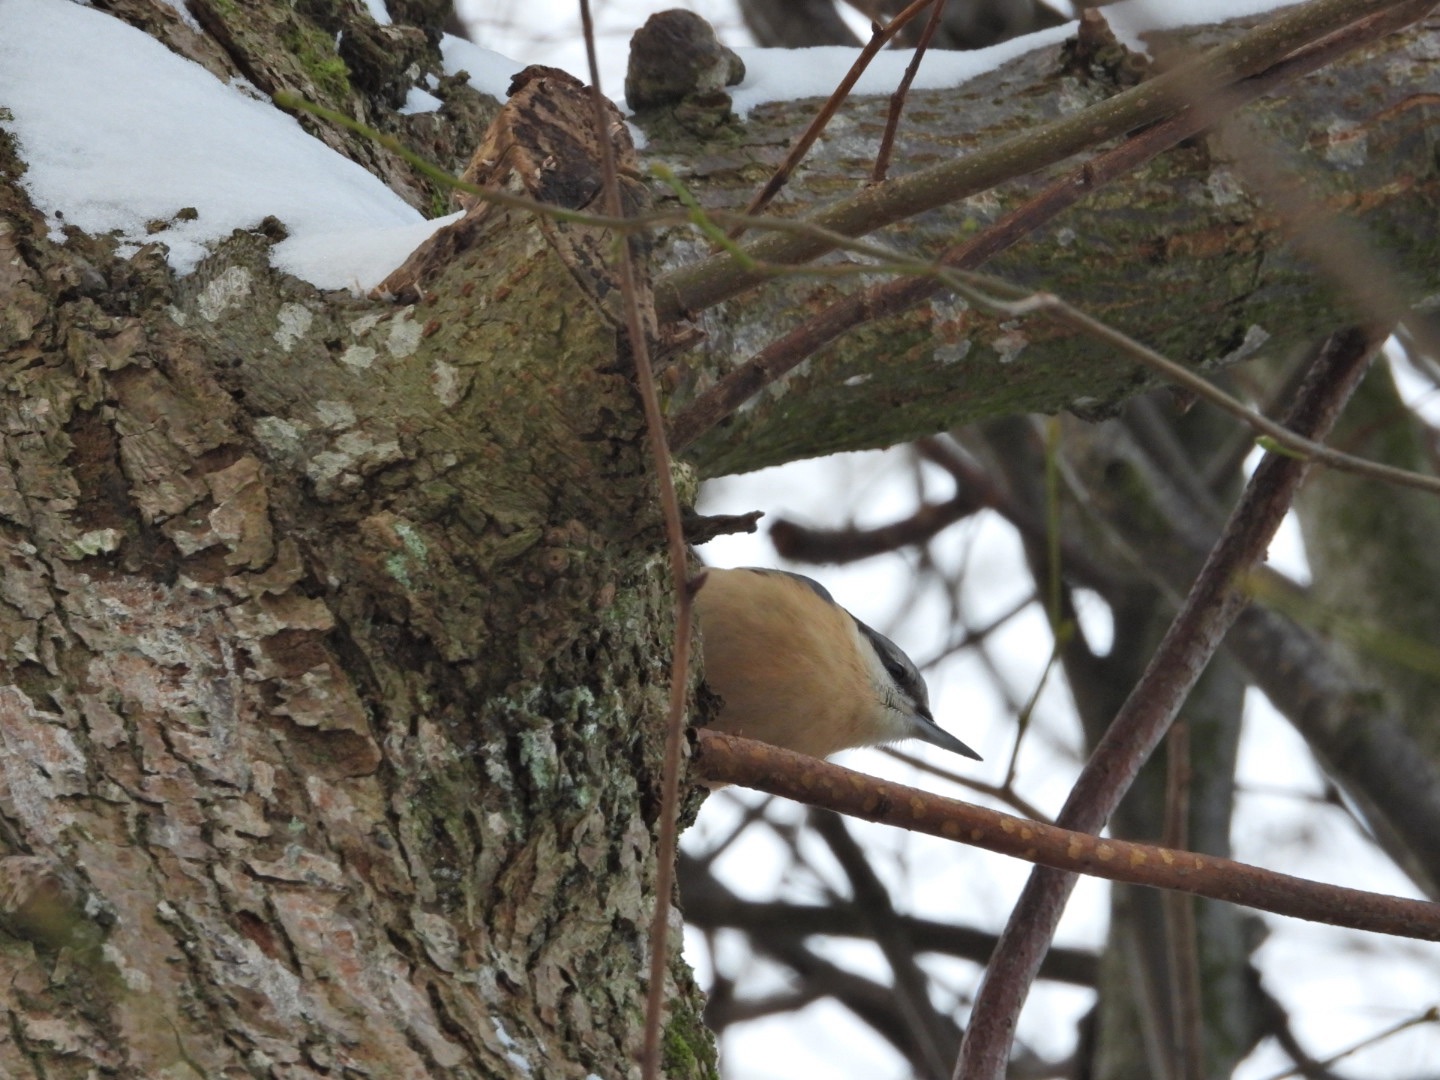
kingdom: Animalia
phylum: Chordata
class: Aves
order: Passeriformes
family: Sittidae
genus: Sitta
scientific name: Sitta europaea
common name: Mørkbuget spætmejse
